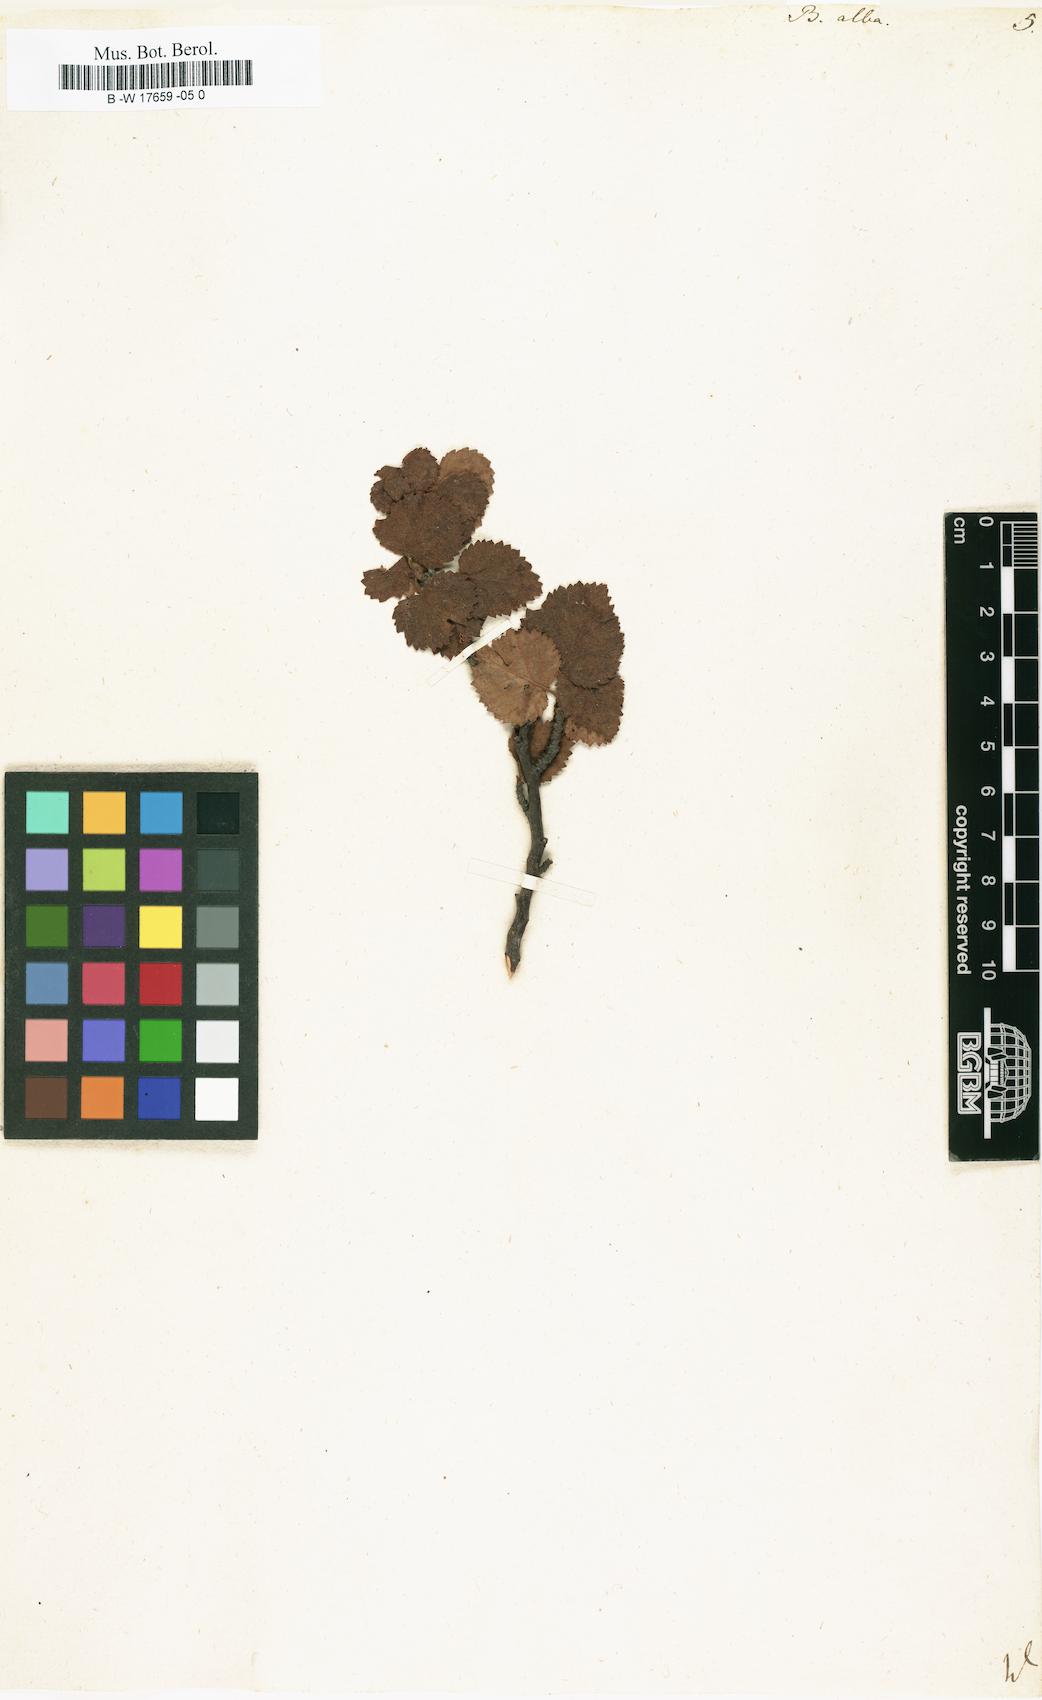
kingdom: Plantae
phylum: Tracheophyta
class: Magnoliopsida
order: Fagales
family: Betulaceae
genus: Betula
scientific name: Betula pubescens
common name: Downy birch
